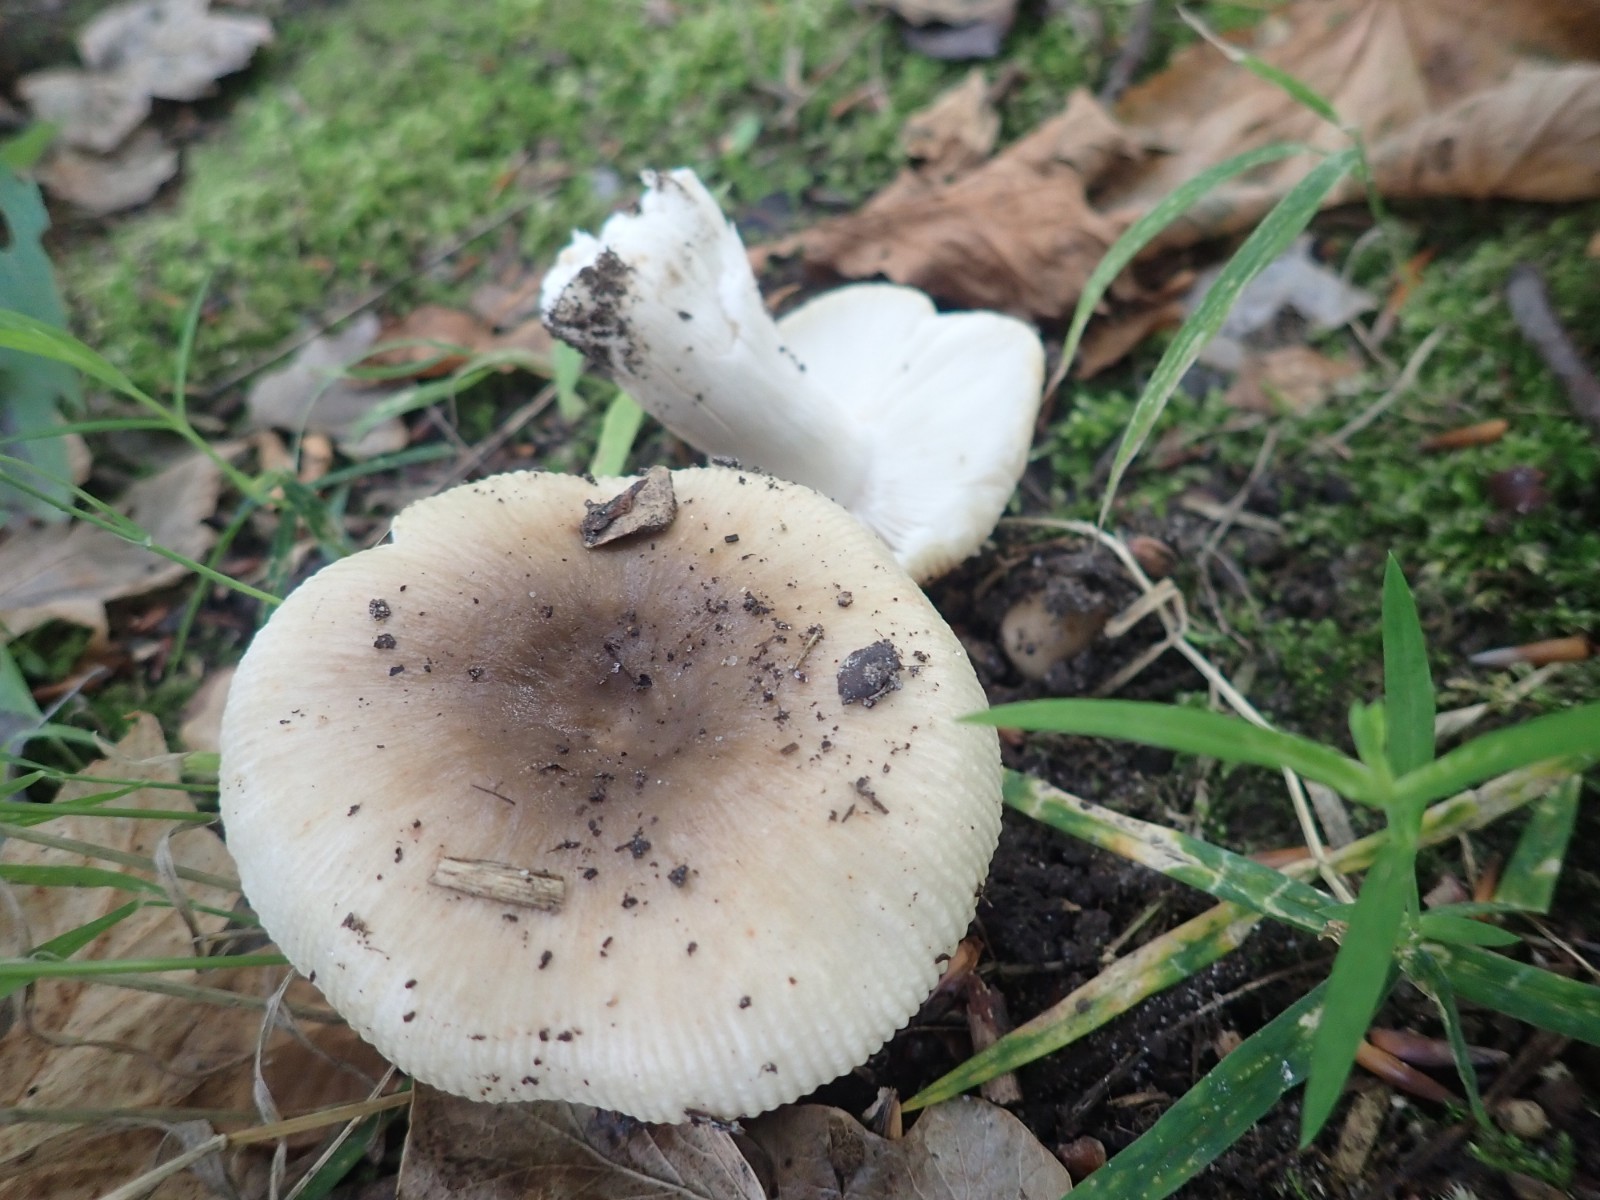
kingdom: Fungi
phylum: Basidiomycota
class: Agaricomycetes
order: Russulales
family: Russulaceae
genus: Russula
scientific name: Russula recondita
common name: mild kam-skørhat
